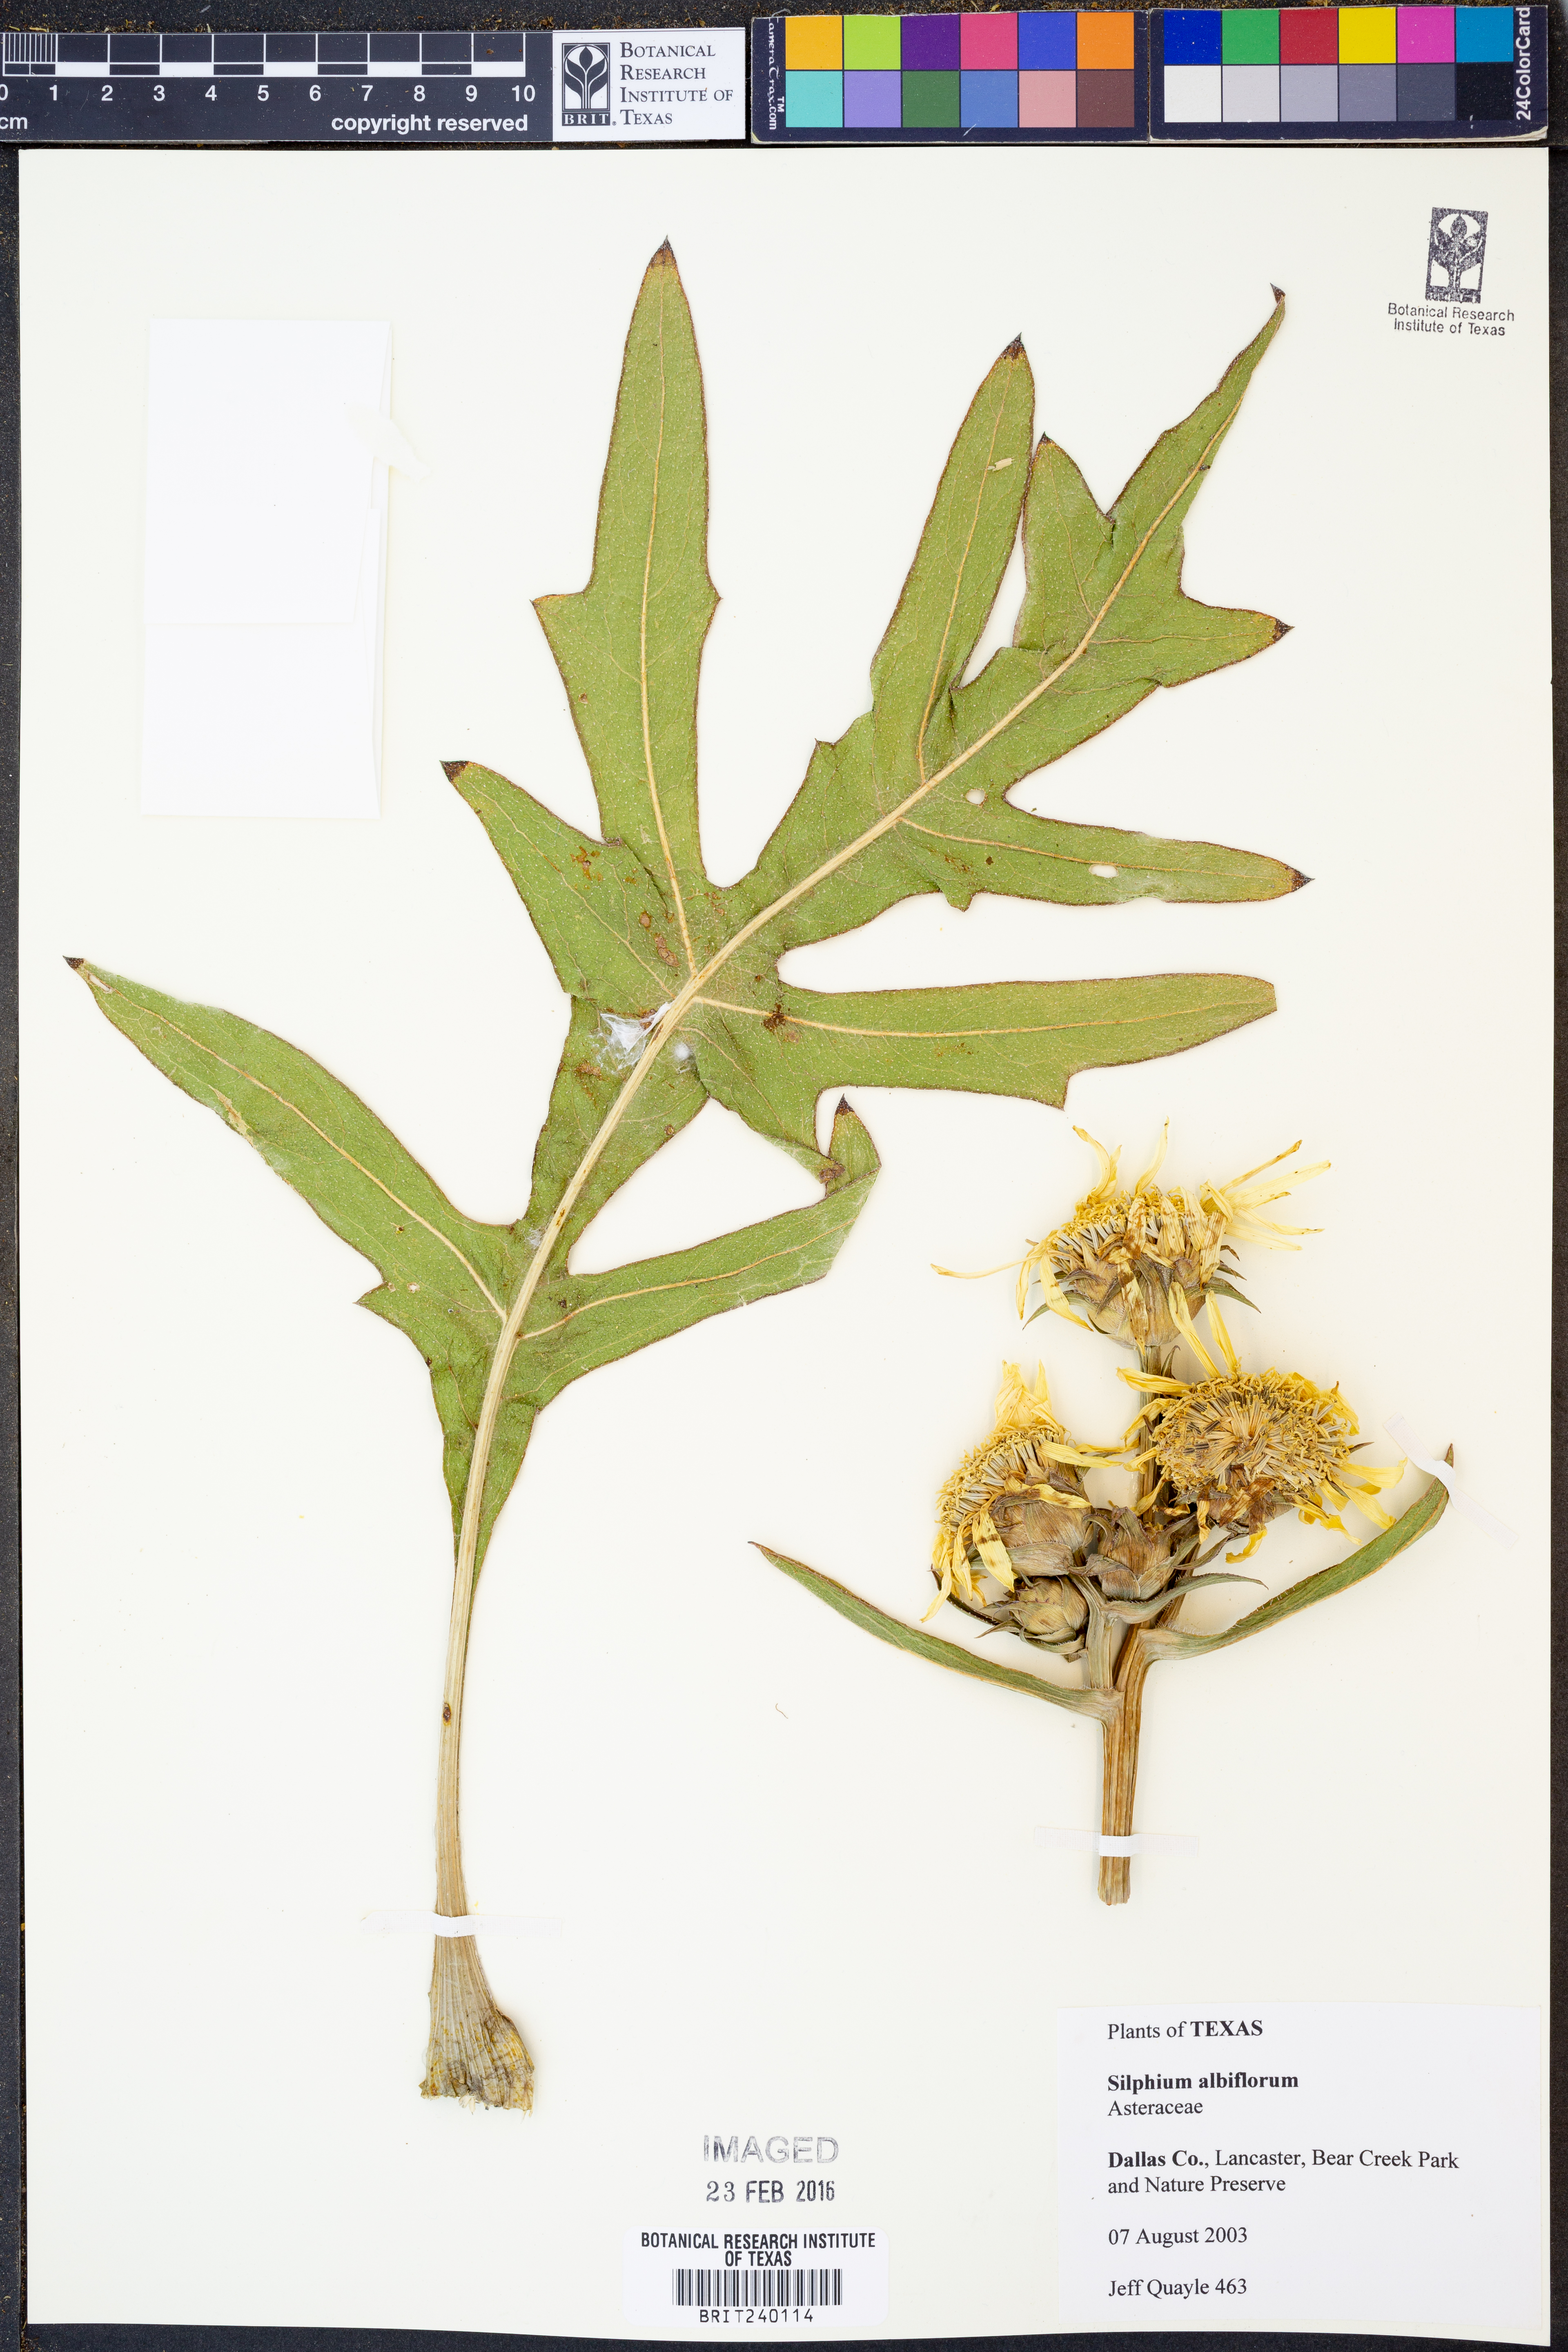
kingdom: Plantae
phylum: Tracheophyta
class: Magnoliopsida
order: Asterales
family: Asteraceae
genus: Silphium
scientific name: Silphium albiflorum
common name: White rosinweed
